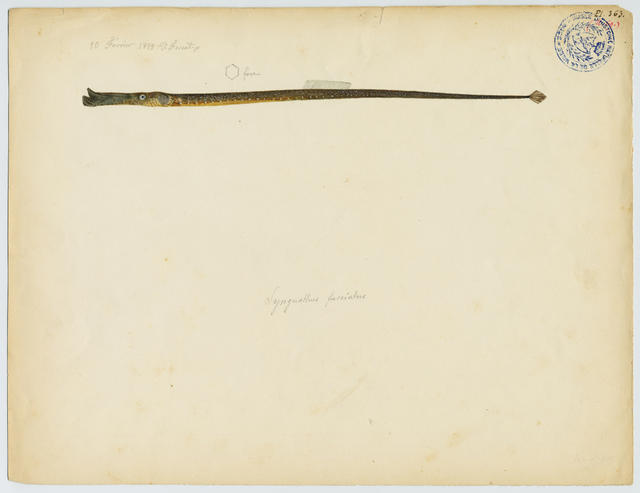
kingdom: Animalia
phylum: Chordata
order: Syngnathiformes
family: Syngnathidae
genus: Syngnathus
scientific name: Syngnathus typhle
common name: Deep-snouted pipefish
